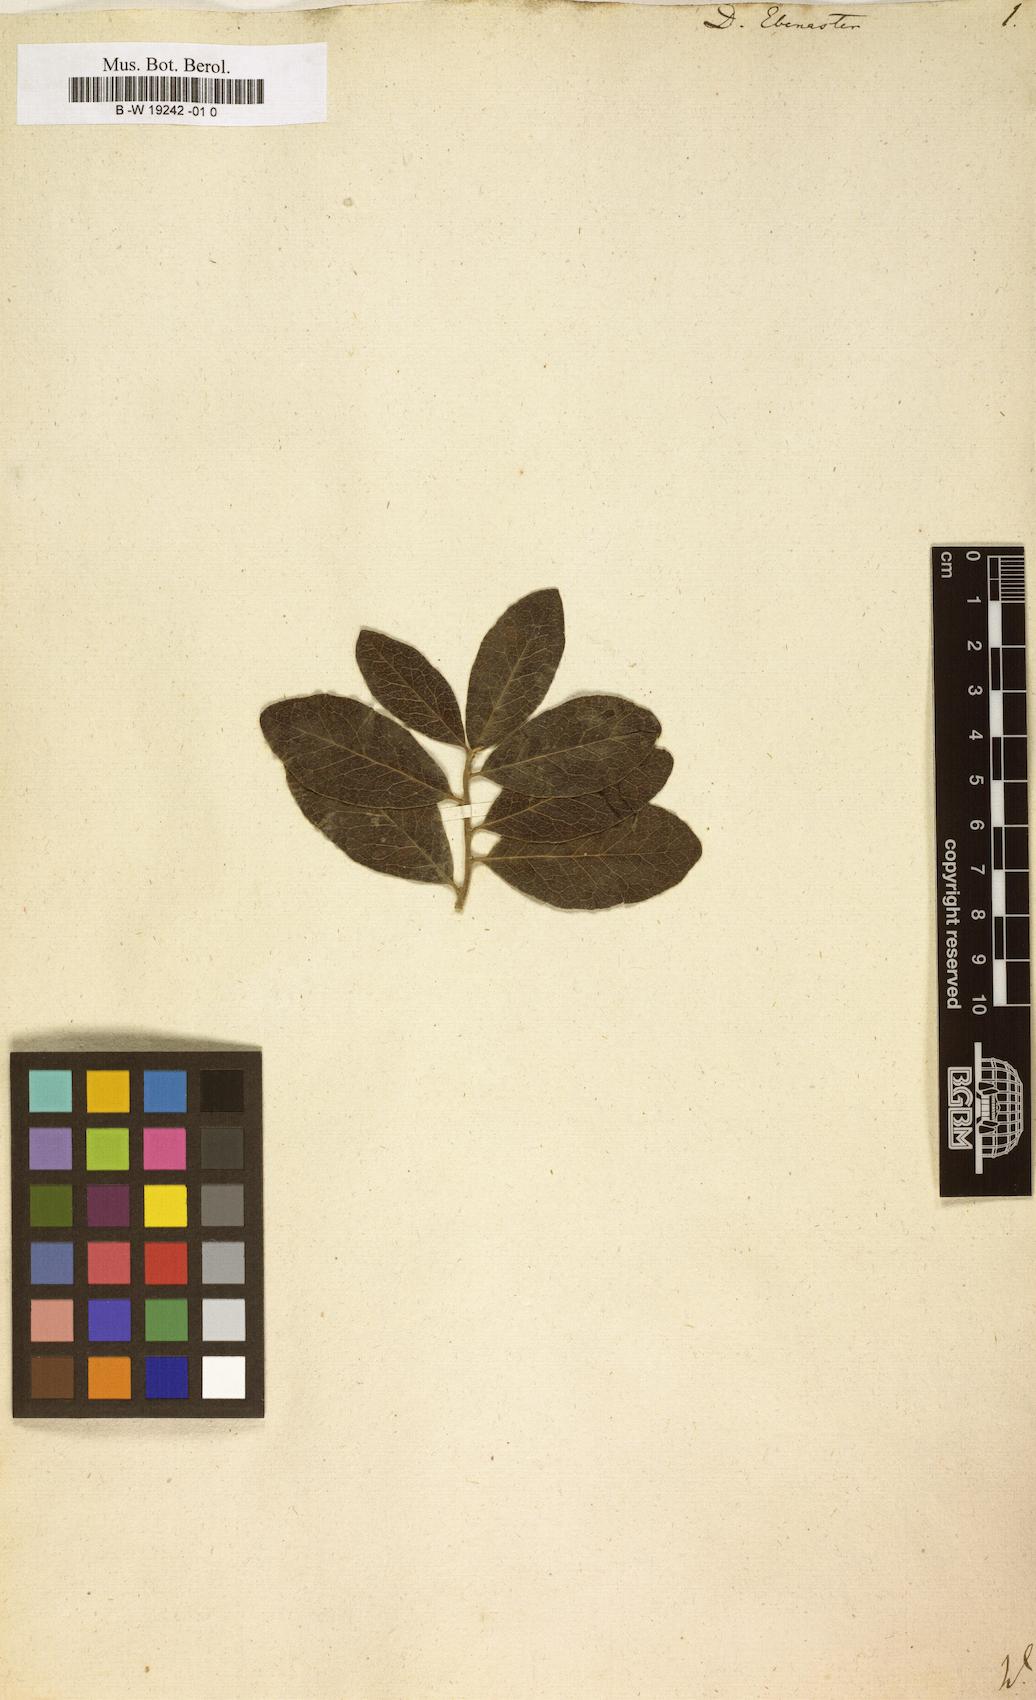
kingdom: Plantae
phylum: Tracheophyta
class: Magnoliopsida
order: Ericales
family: Ebenaceae
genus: Diospyros
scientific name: Diospyros ebenaster
